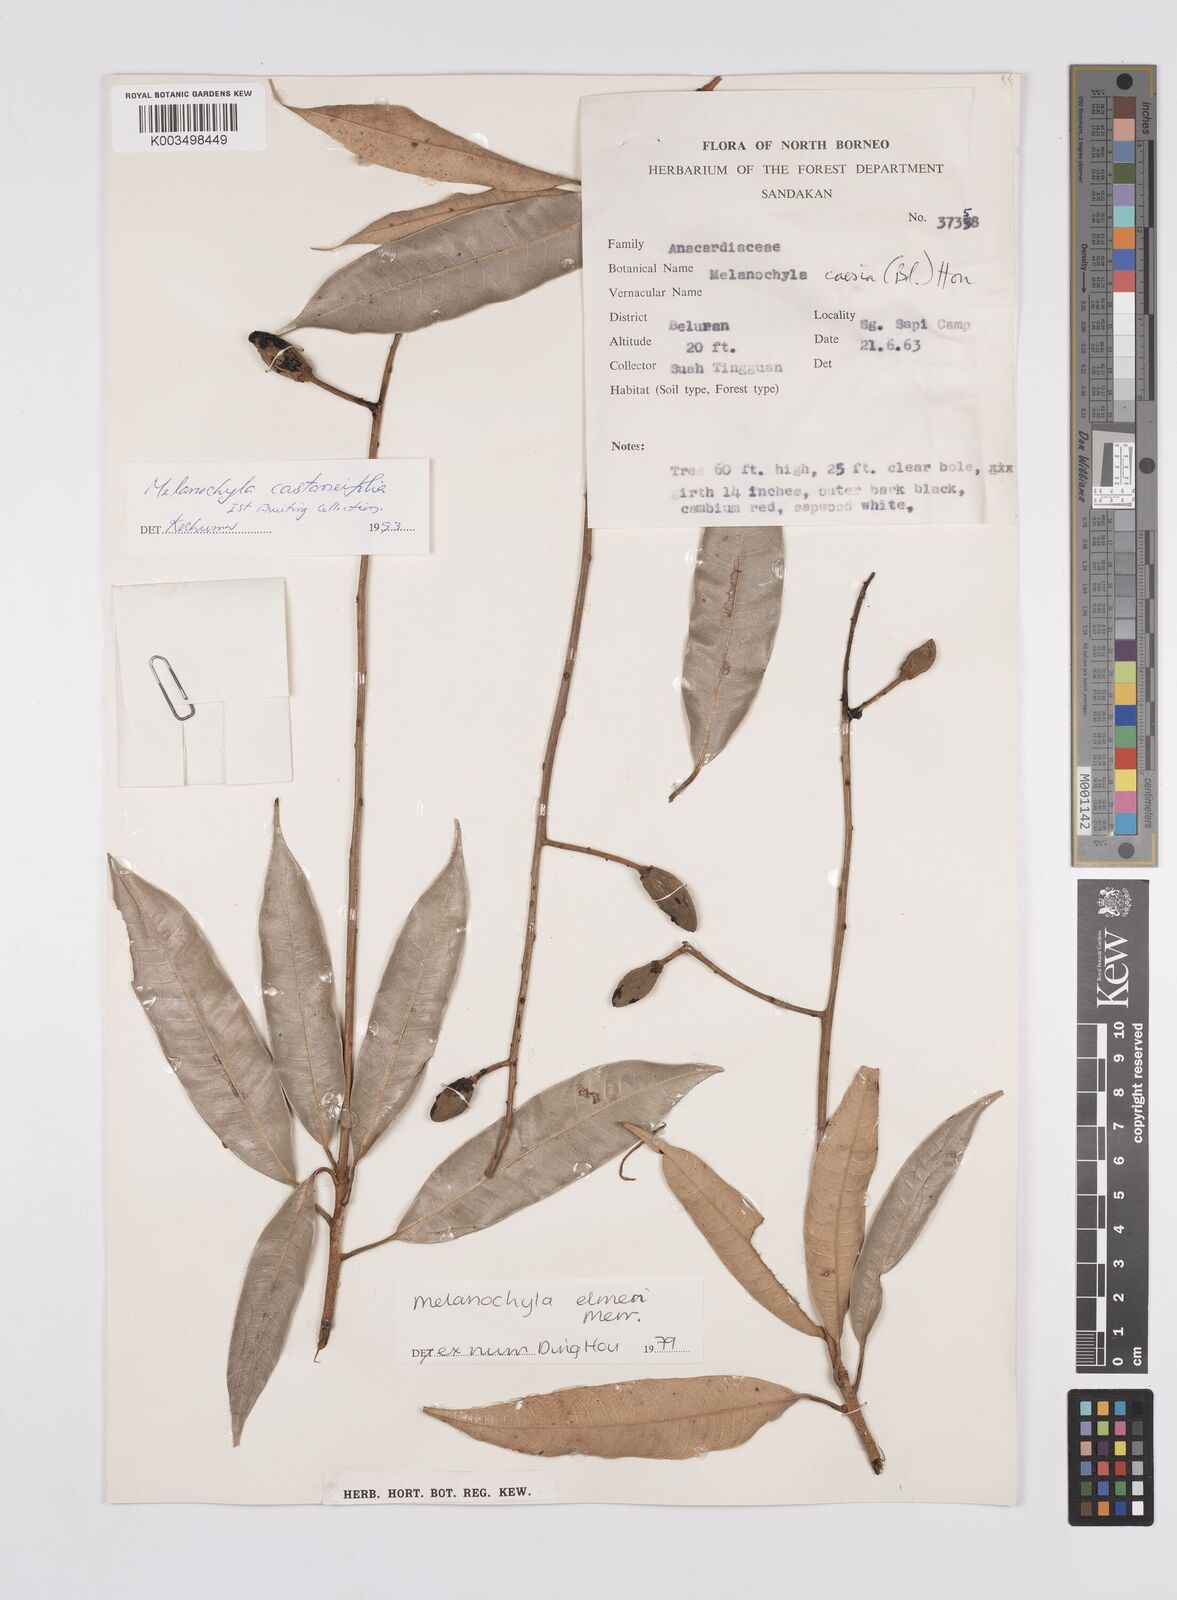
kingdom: Plantae
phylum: Tracheophyta
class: Magnoliopsida
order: Sapindales
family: Anacardiaceae
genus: Melanochyla
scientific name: Melanochyla castaneifolia
